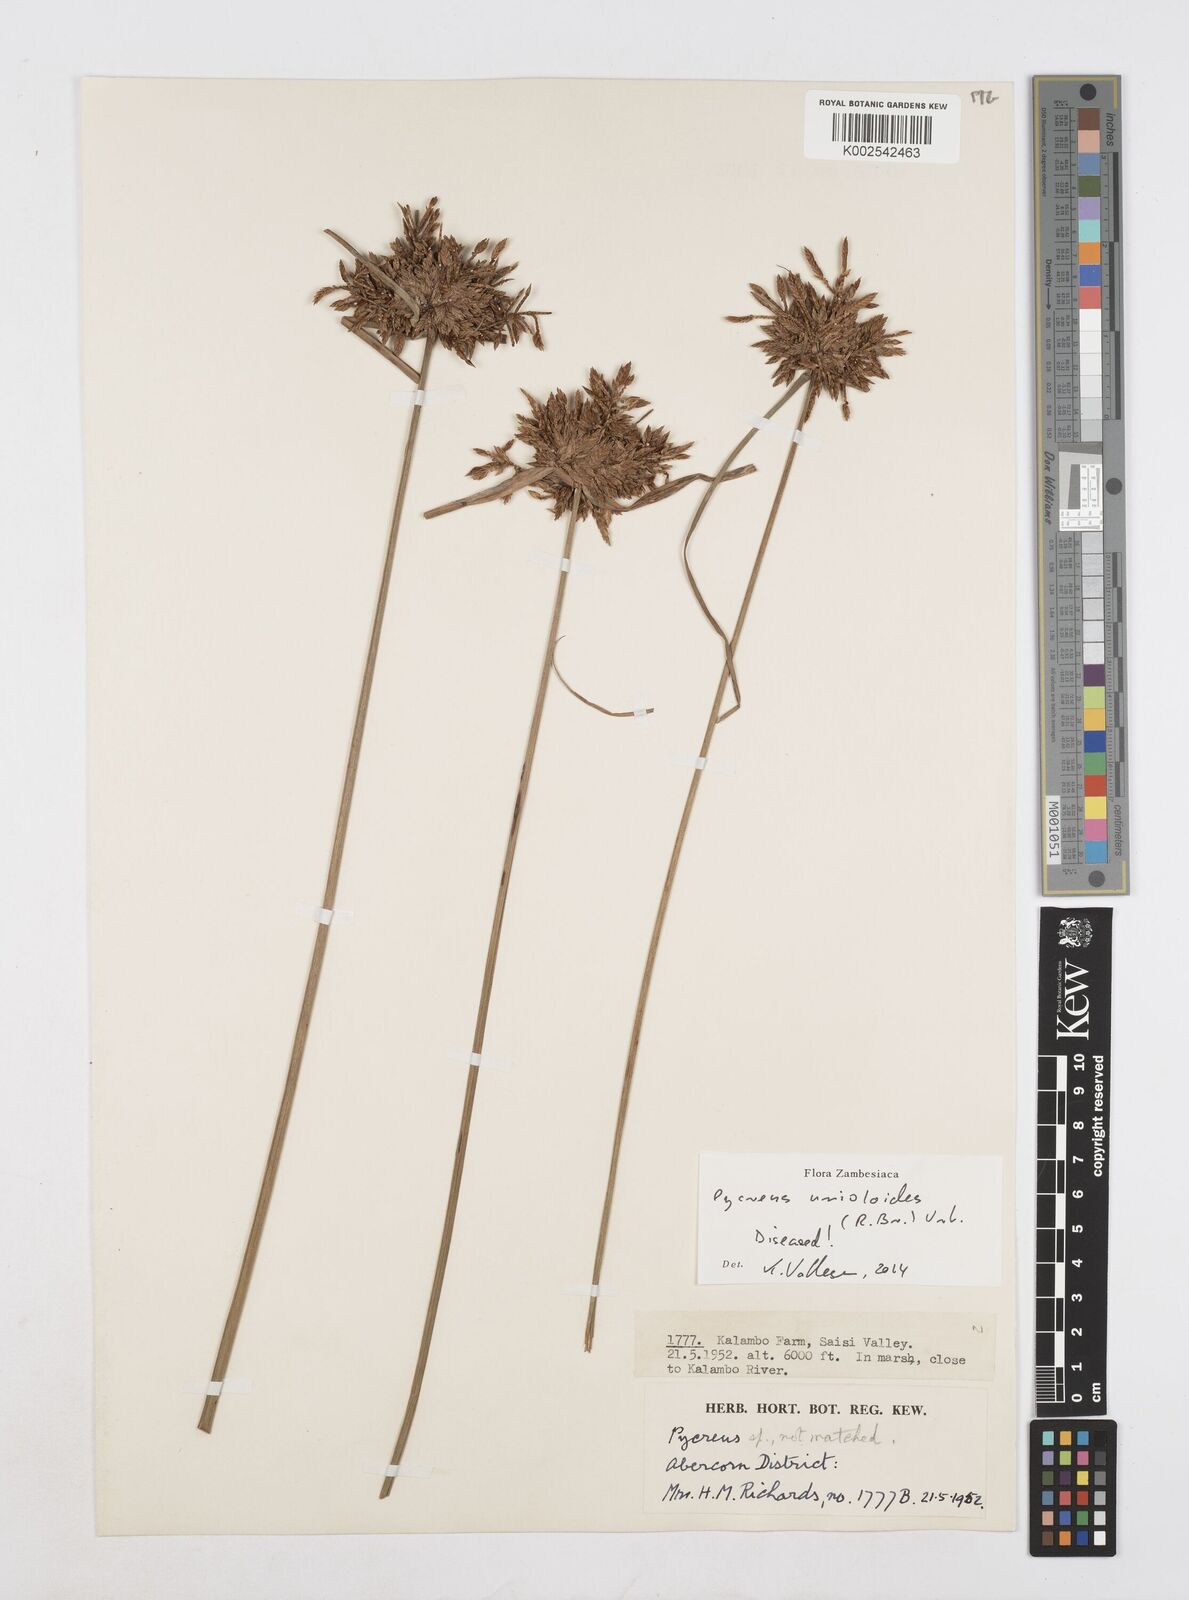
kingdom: Plantae
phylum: Tracheophyta
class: Liliopsida
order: Poales
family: Cyperaceae
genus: Cyperus
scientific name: Cyperus unioloides
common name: Uniola flatsedge
